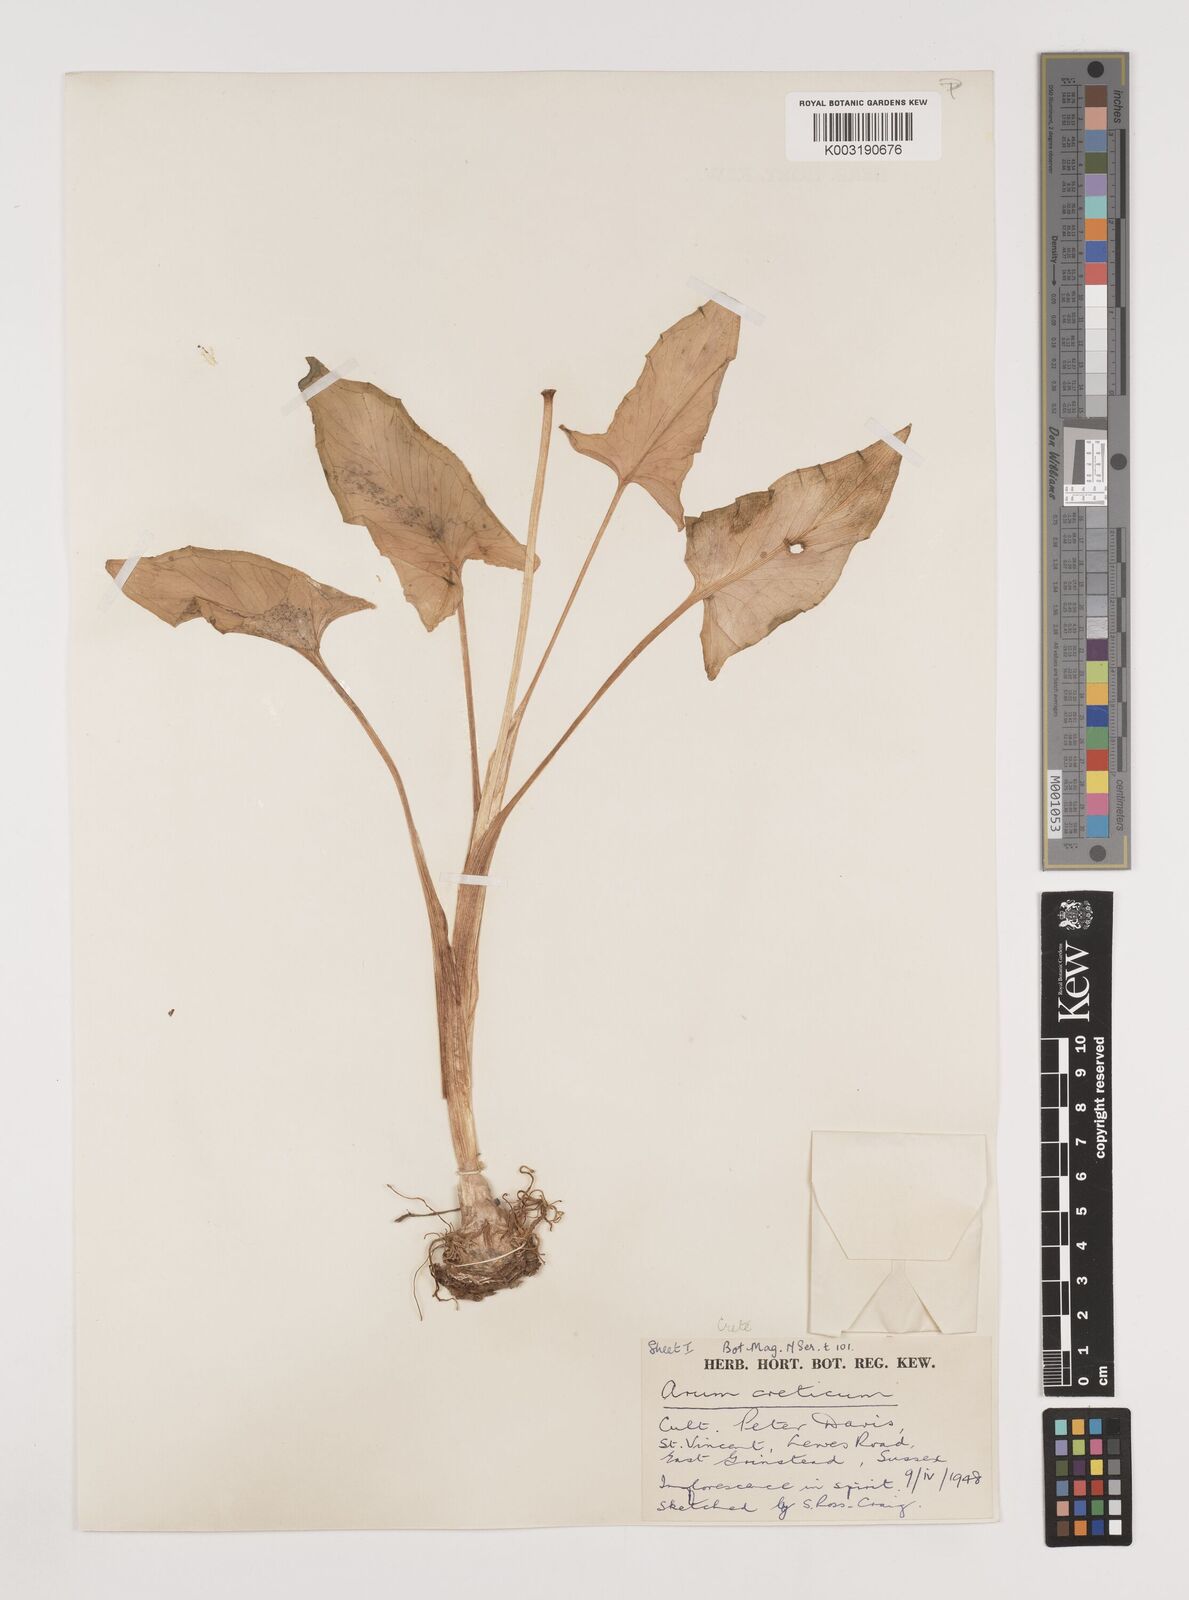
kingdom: Plantae
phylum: Tracheophyta
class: Liliopsida
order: Alismatales
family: Araceae
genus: Arum
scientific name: Arum creticum
